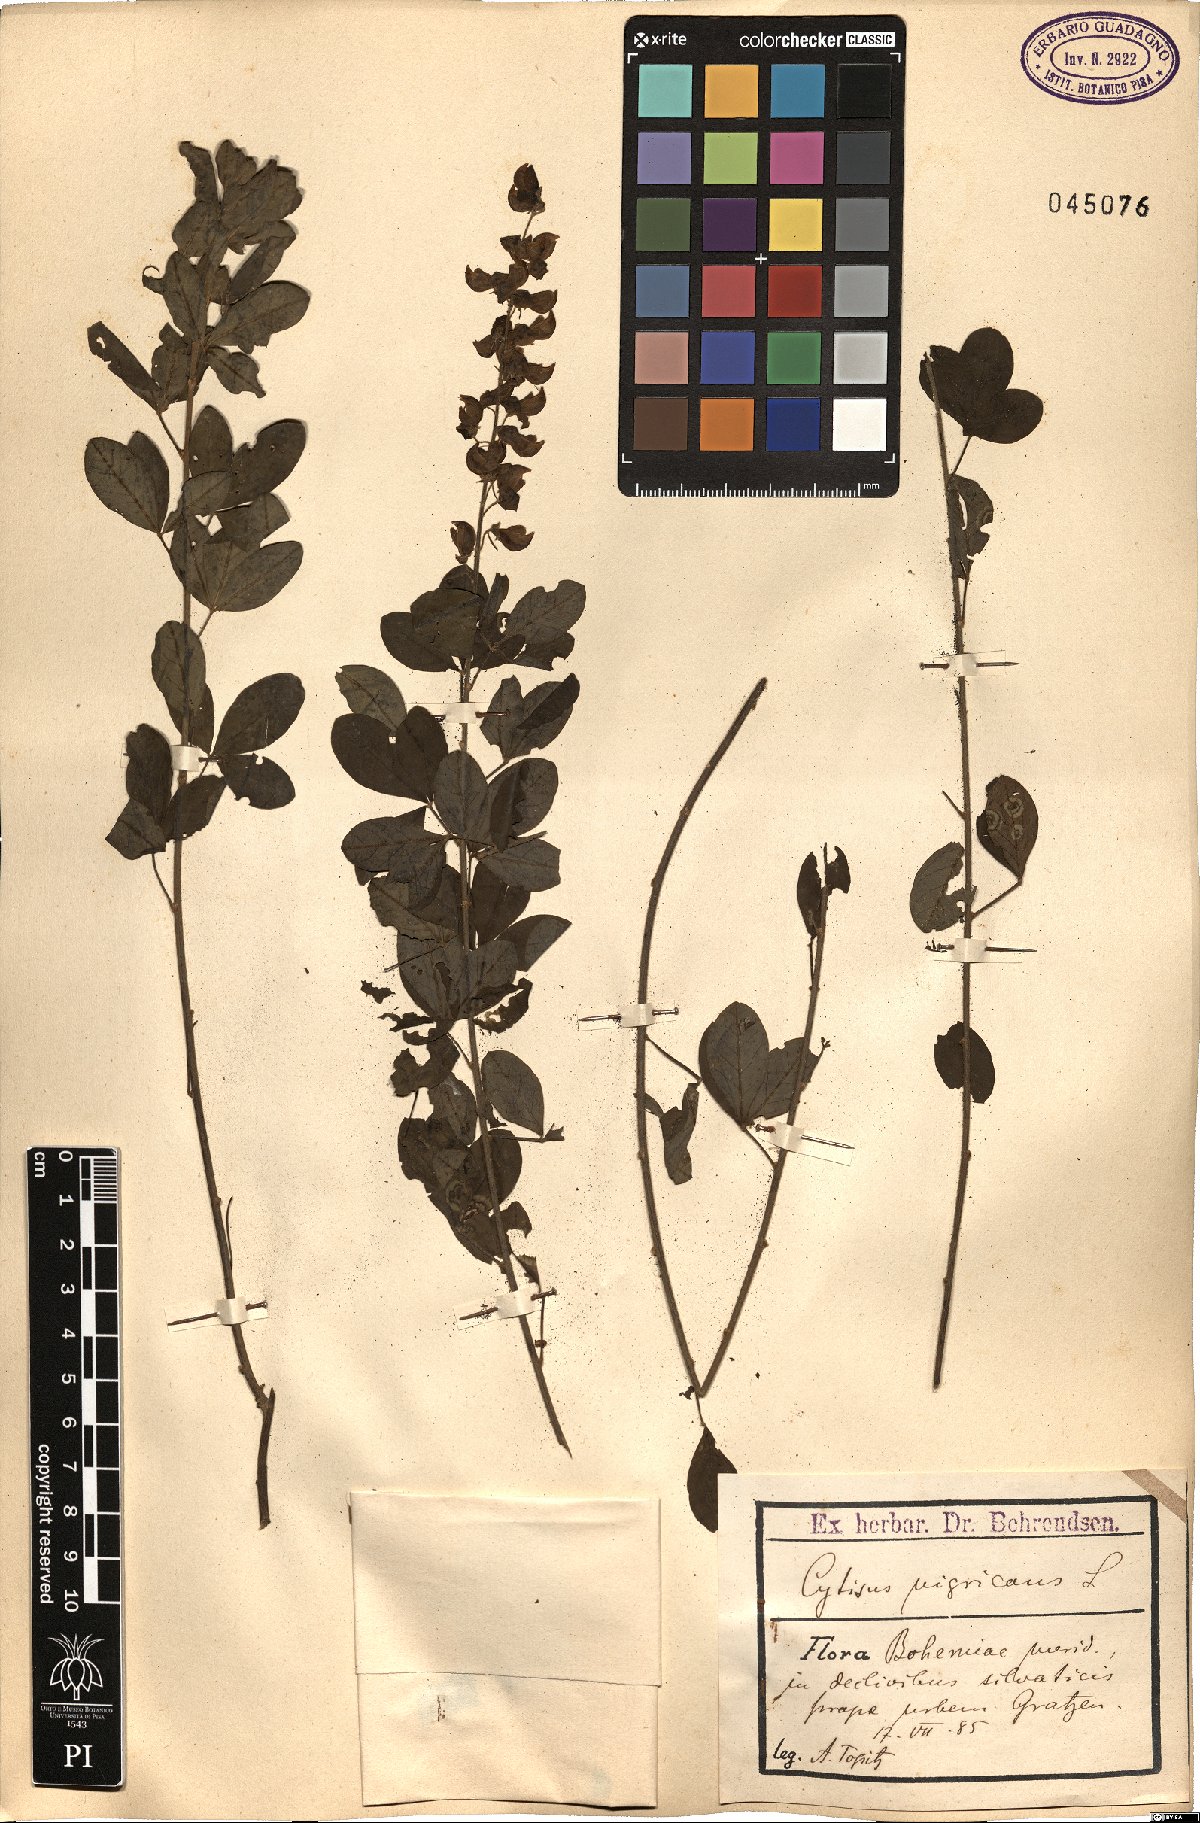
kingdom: Plantae
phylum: Tracheophyta
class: Magnoliopsida
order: Fabales
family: Fabaceae
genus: Cytisus
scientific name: Cytisus nigricans
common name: Black broom
